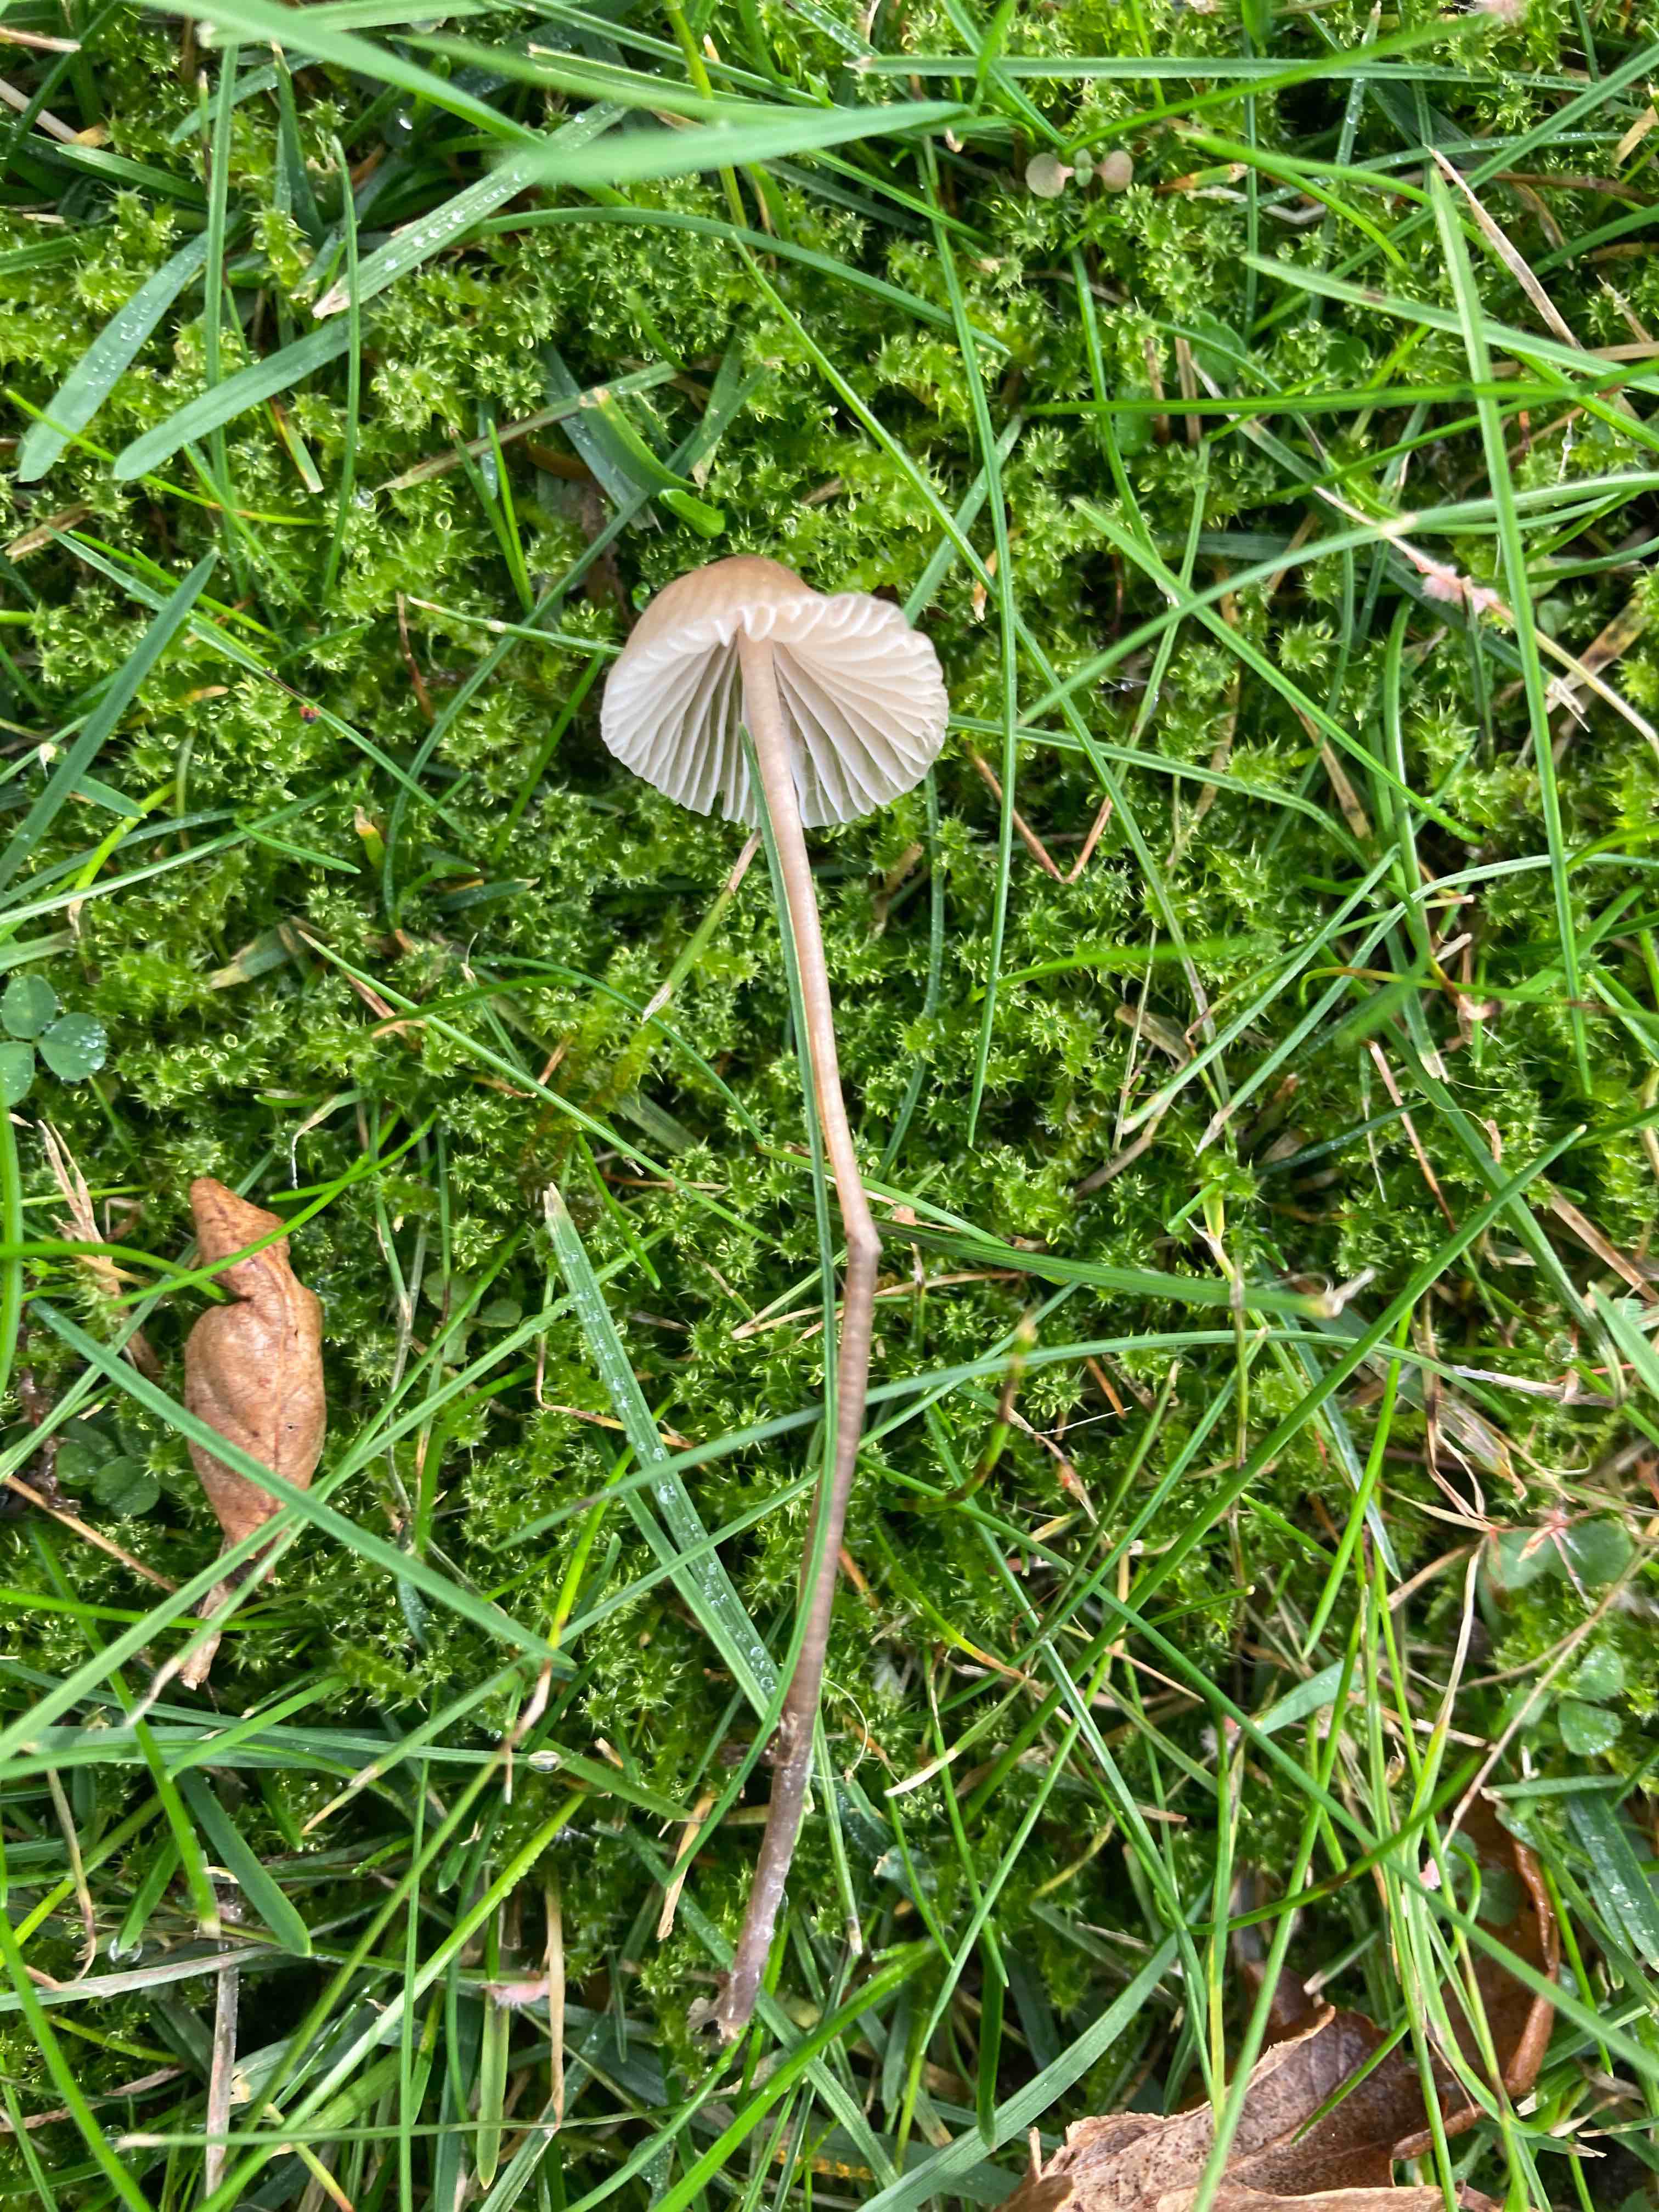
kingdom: Fungi
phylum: Basidiomycota
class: Agaricomycetes
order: Agaricales
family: Mycenaceae
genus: Mycena
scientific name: Mycena leptocephala
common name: klor-huesvamp
